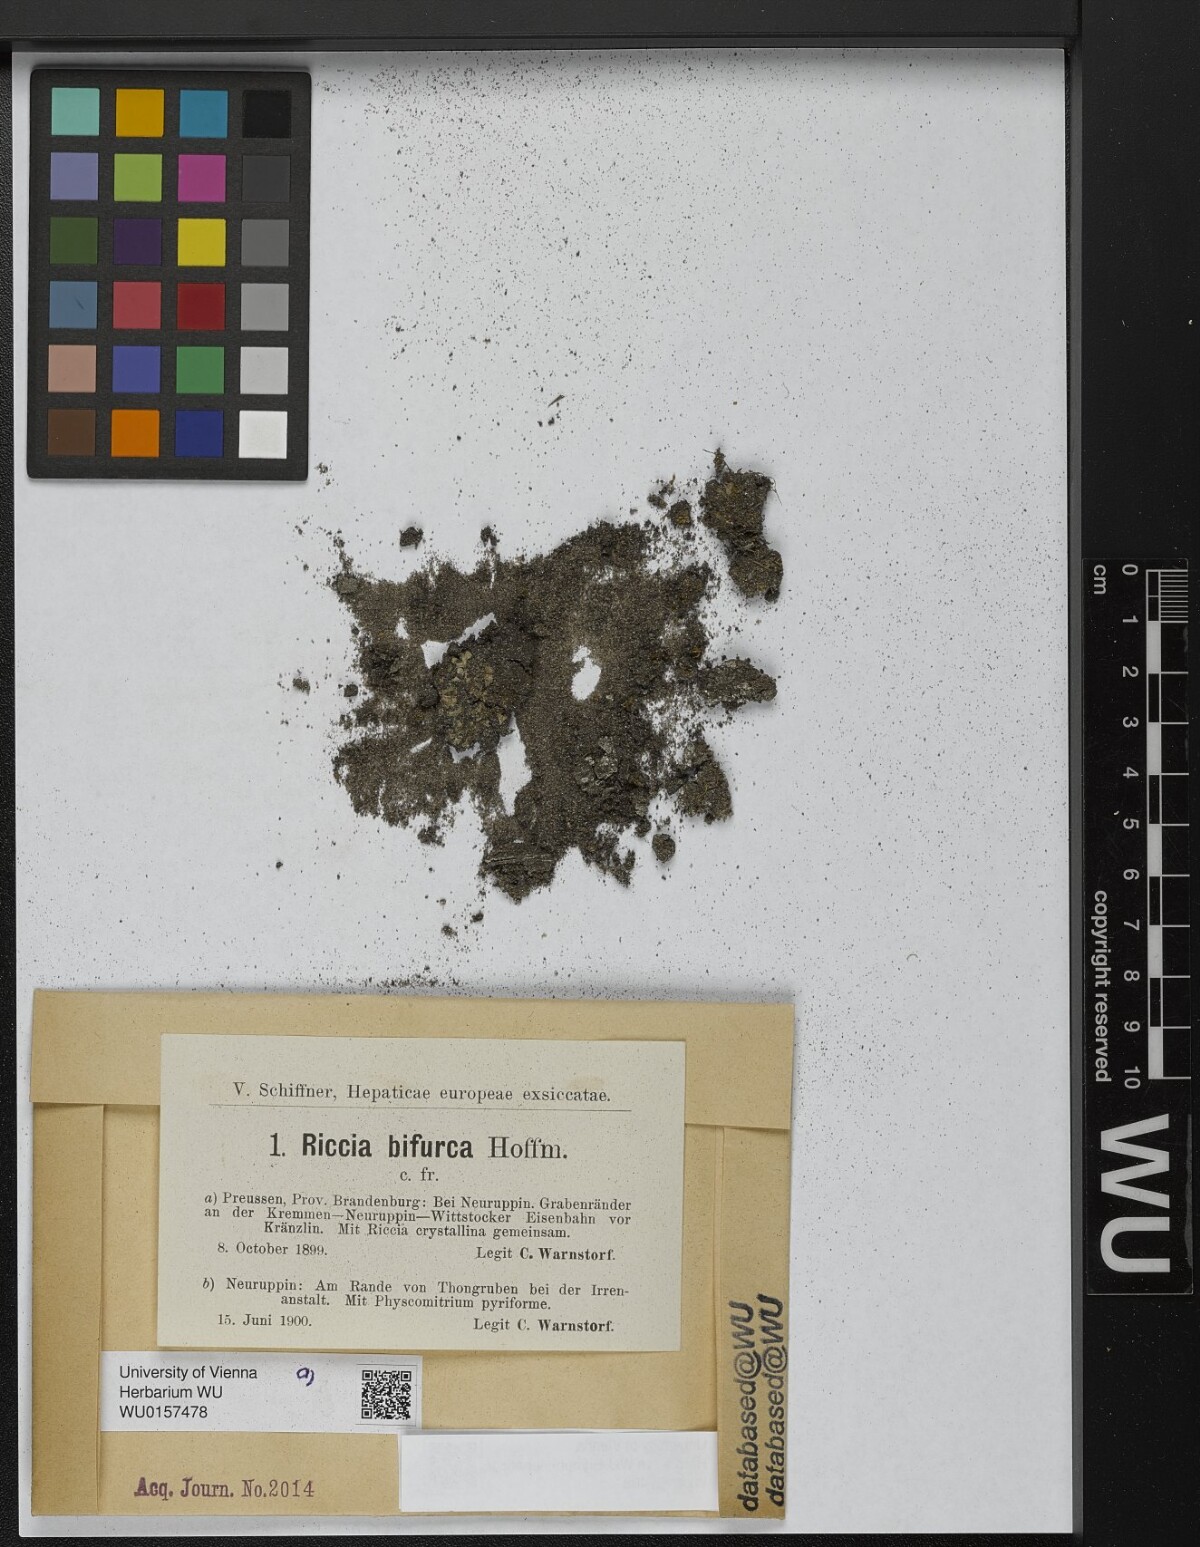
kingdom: Plantae
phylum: Marchantiophyta
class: Marchantiopsida
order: Marchantiales
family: Ricciaceae
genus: Riccia
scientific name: Riccia bifurca
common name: Lizard crystalwort
